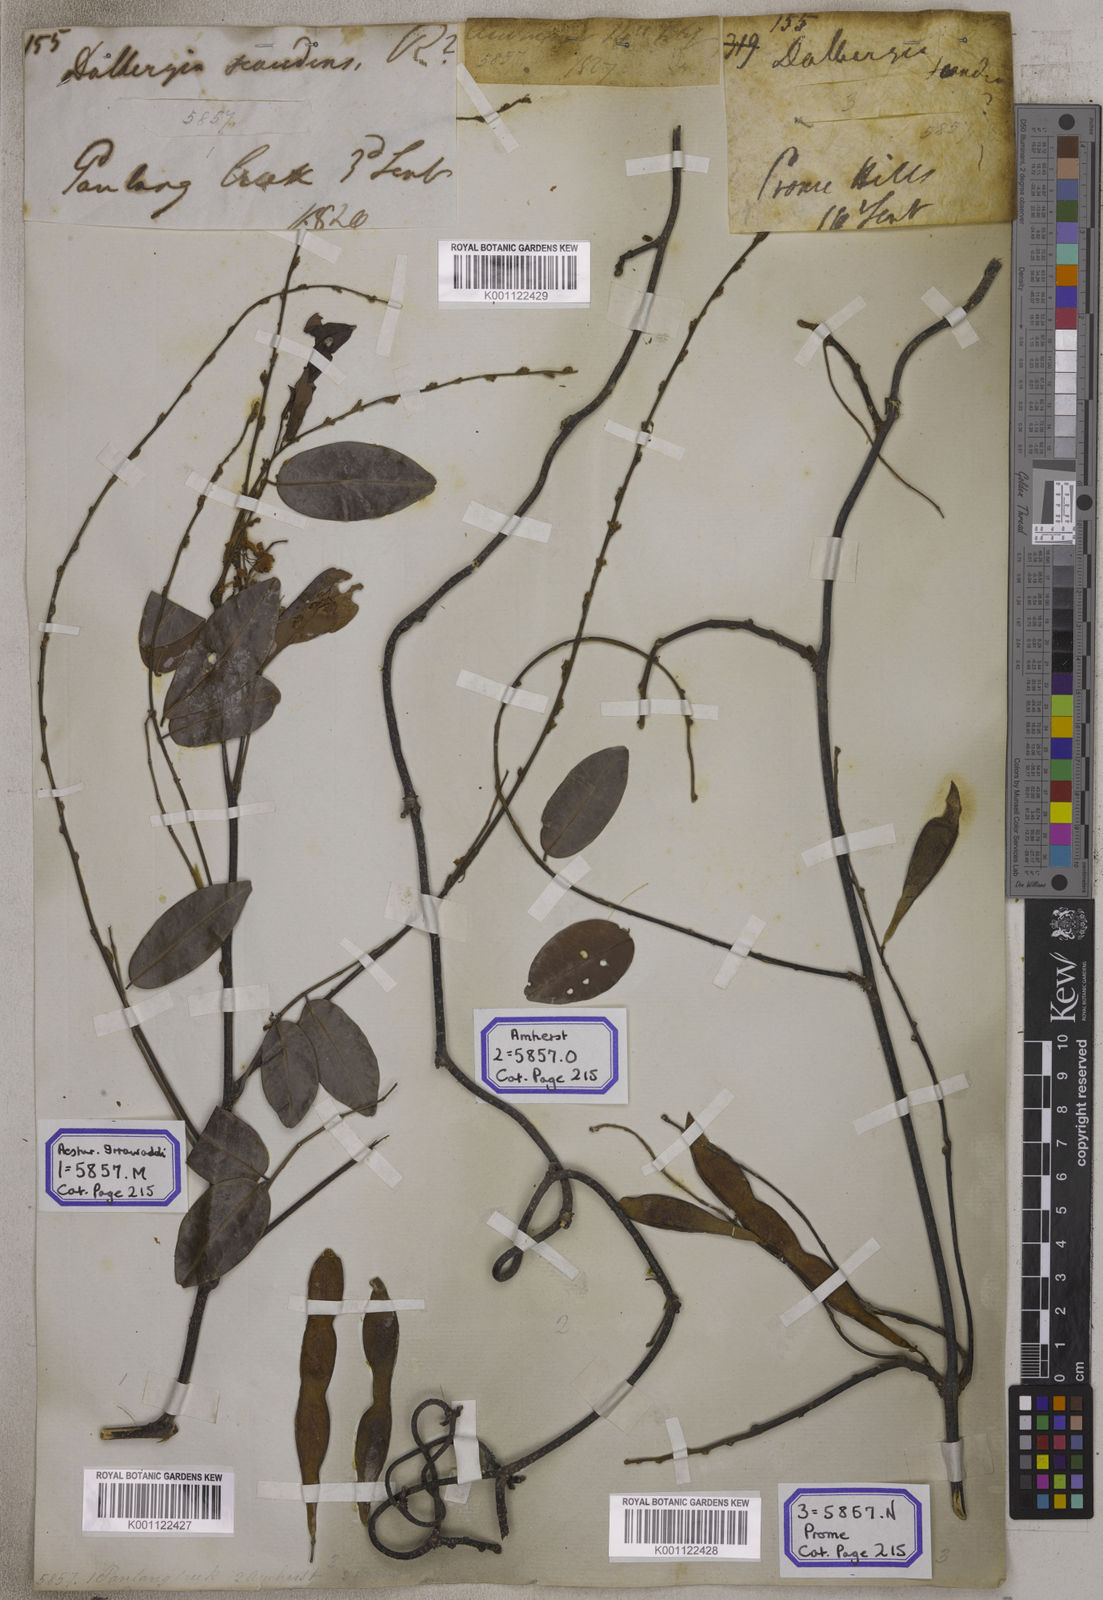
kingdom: Plantae
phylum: Tracheophyta
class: Magnoliopsida
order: Fabales
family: Fabaceae
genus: Brachypterum
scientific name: Brachypterum scandens
